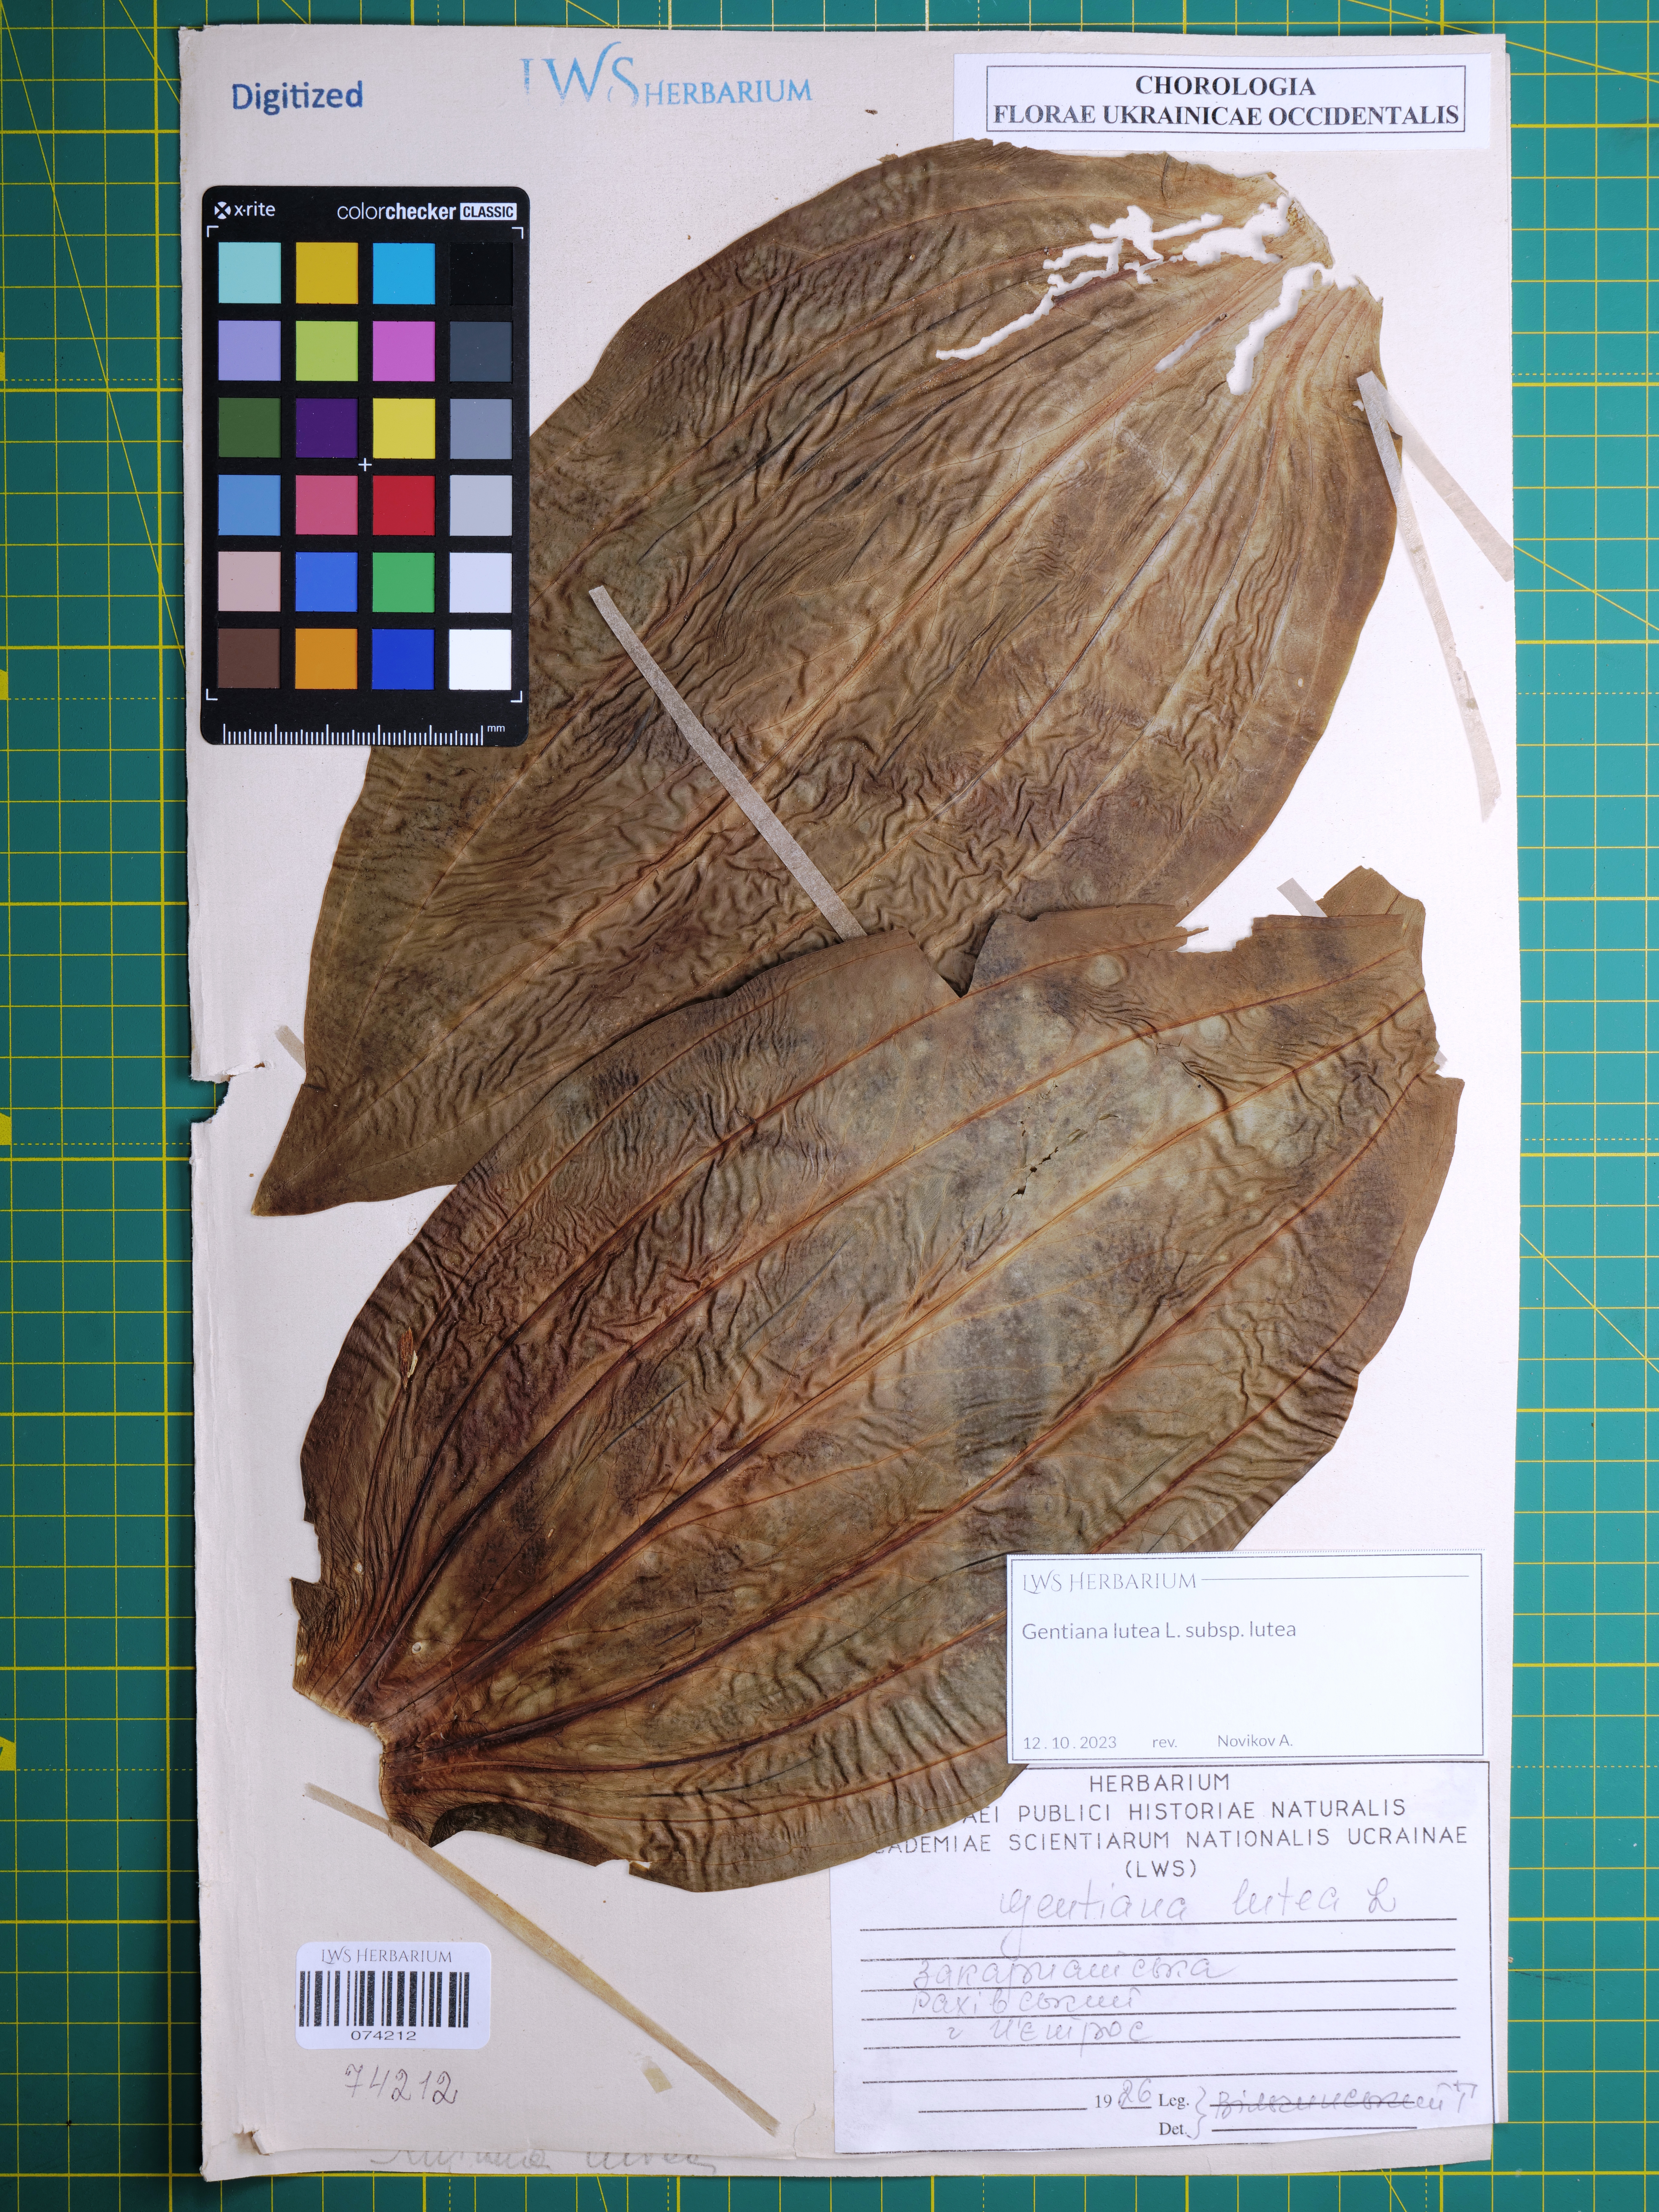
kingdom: Plantae
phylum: Tracheophyta
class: Magnoliopsida
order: Gentianales
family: Gentianaceae
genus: Gentiana
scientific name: Gentiana lutea
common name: Great yellow gentian
